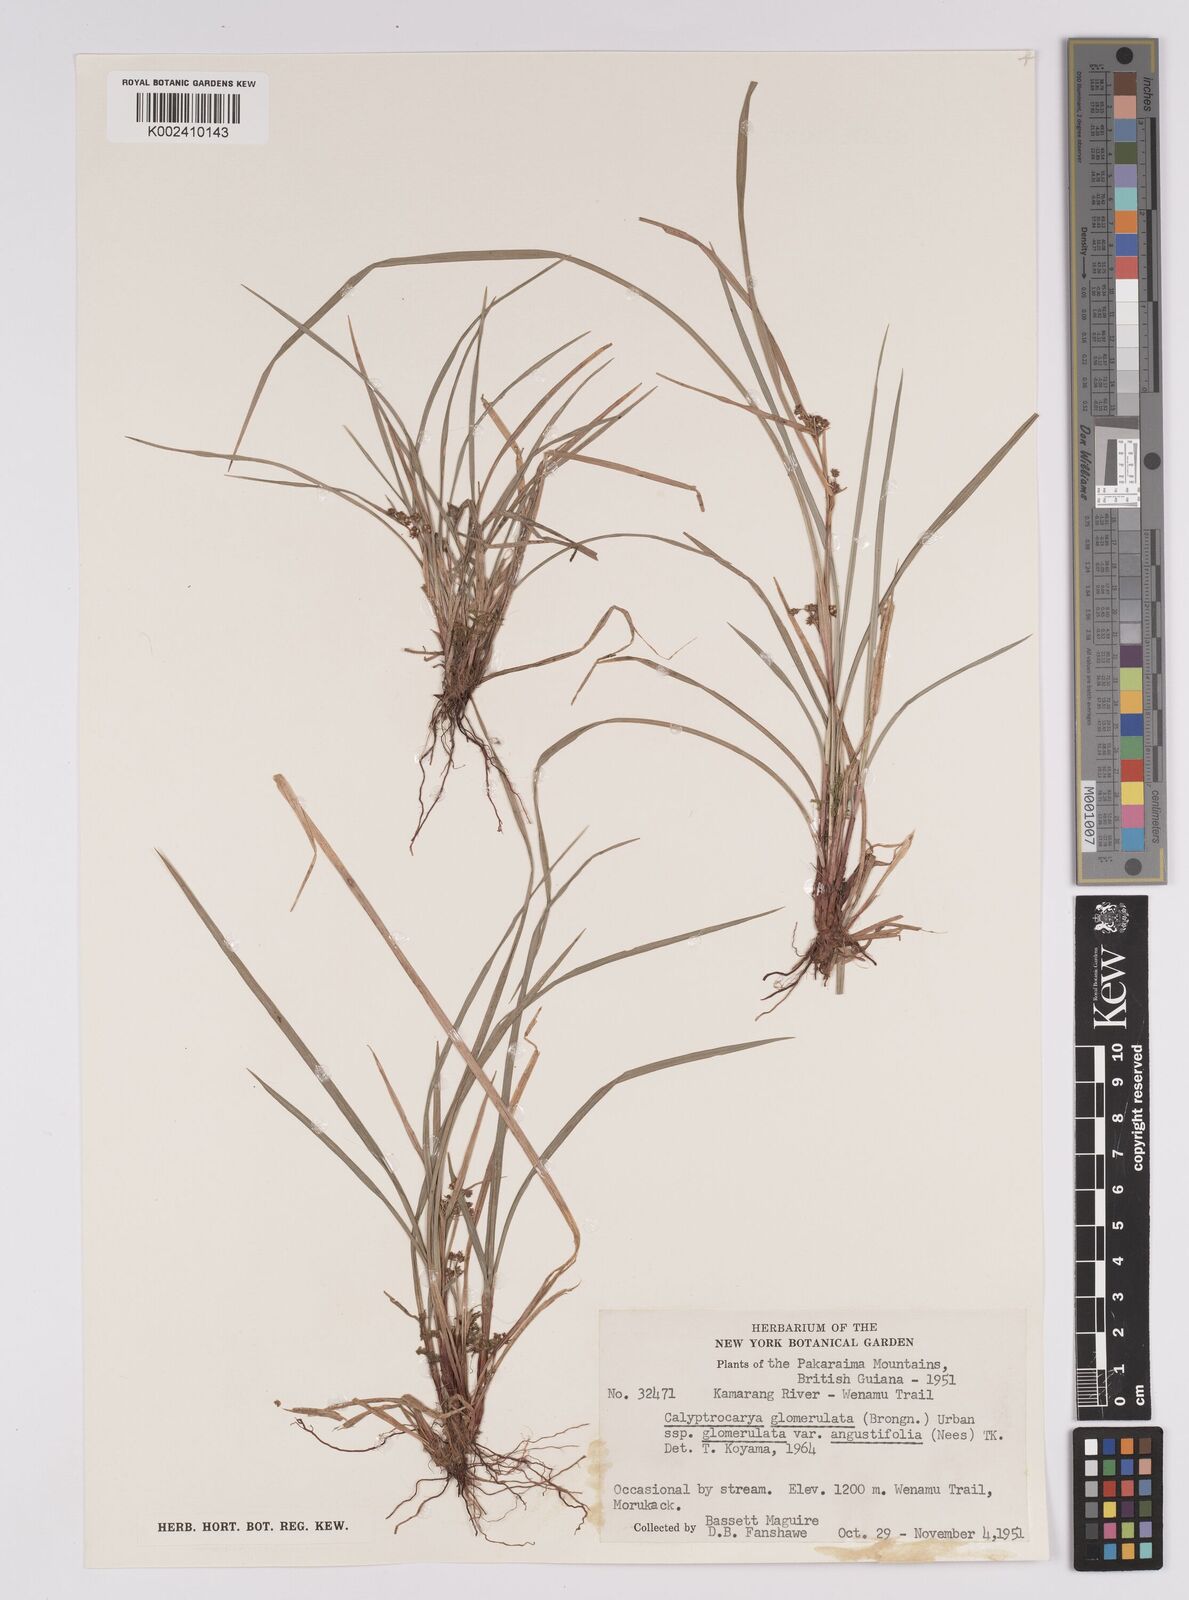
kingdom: Plantae
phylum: Tracheophyta
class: Liliopsida
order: Poales
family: Cyperaceae
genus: Calyptrocarya
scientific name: Calyptrocarya glomerulata
